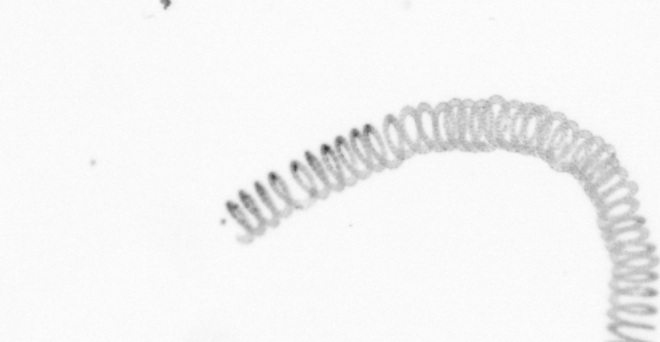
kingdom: Chromista
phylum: Ochrophyta
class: Bacillariophyceae
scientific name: Bacillariophyceae
